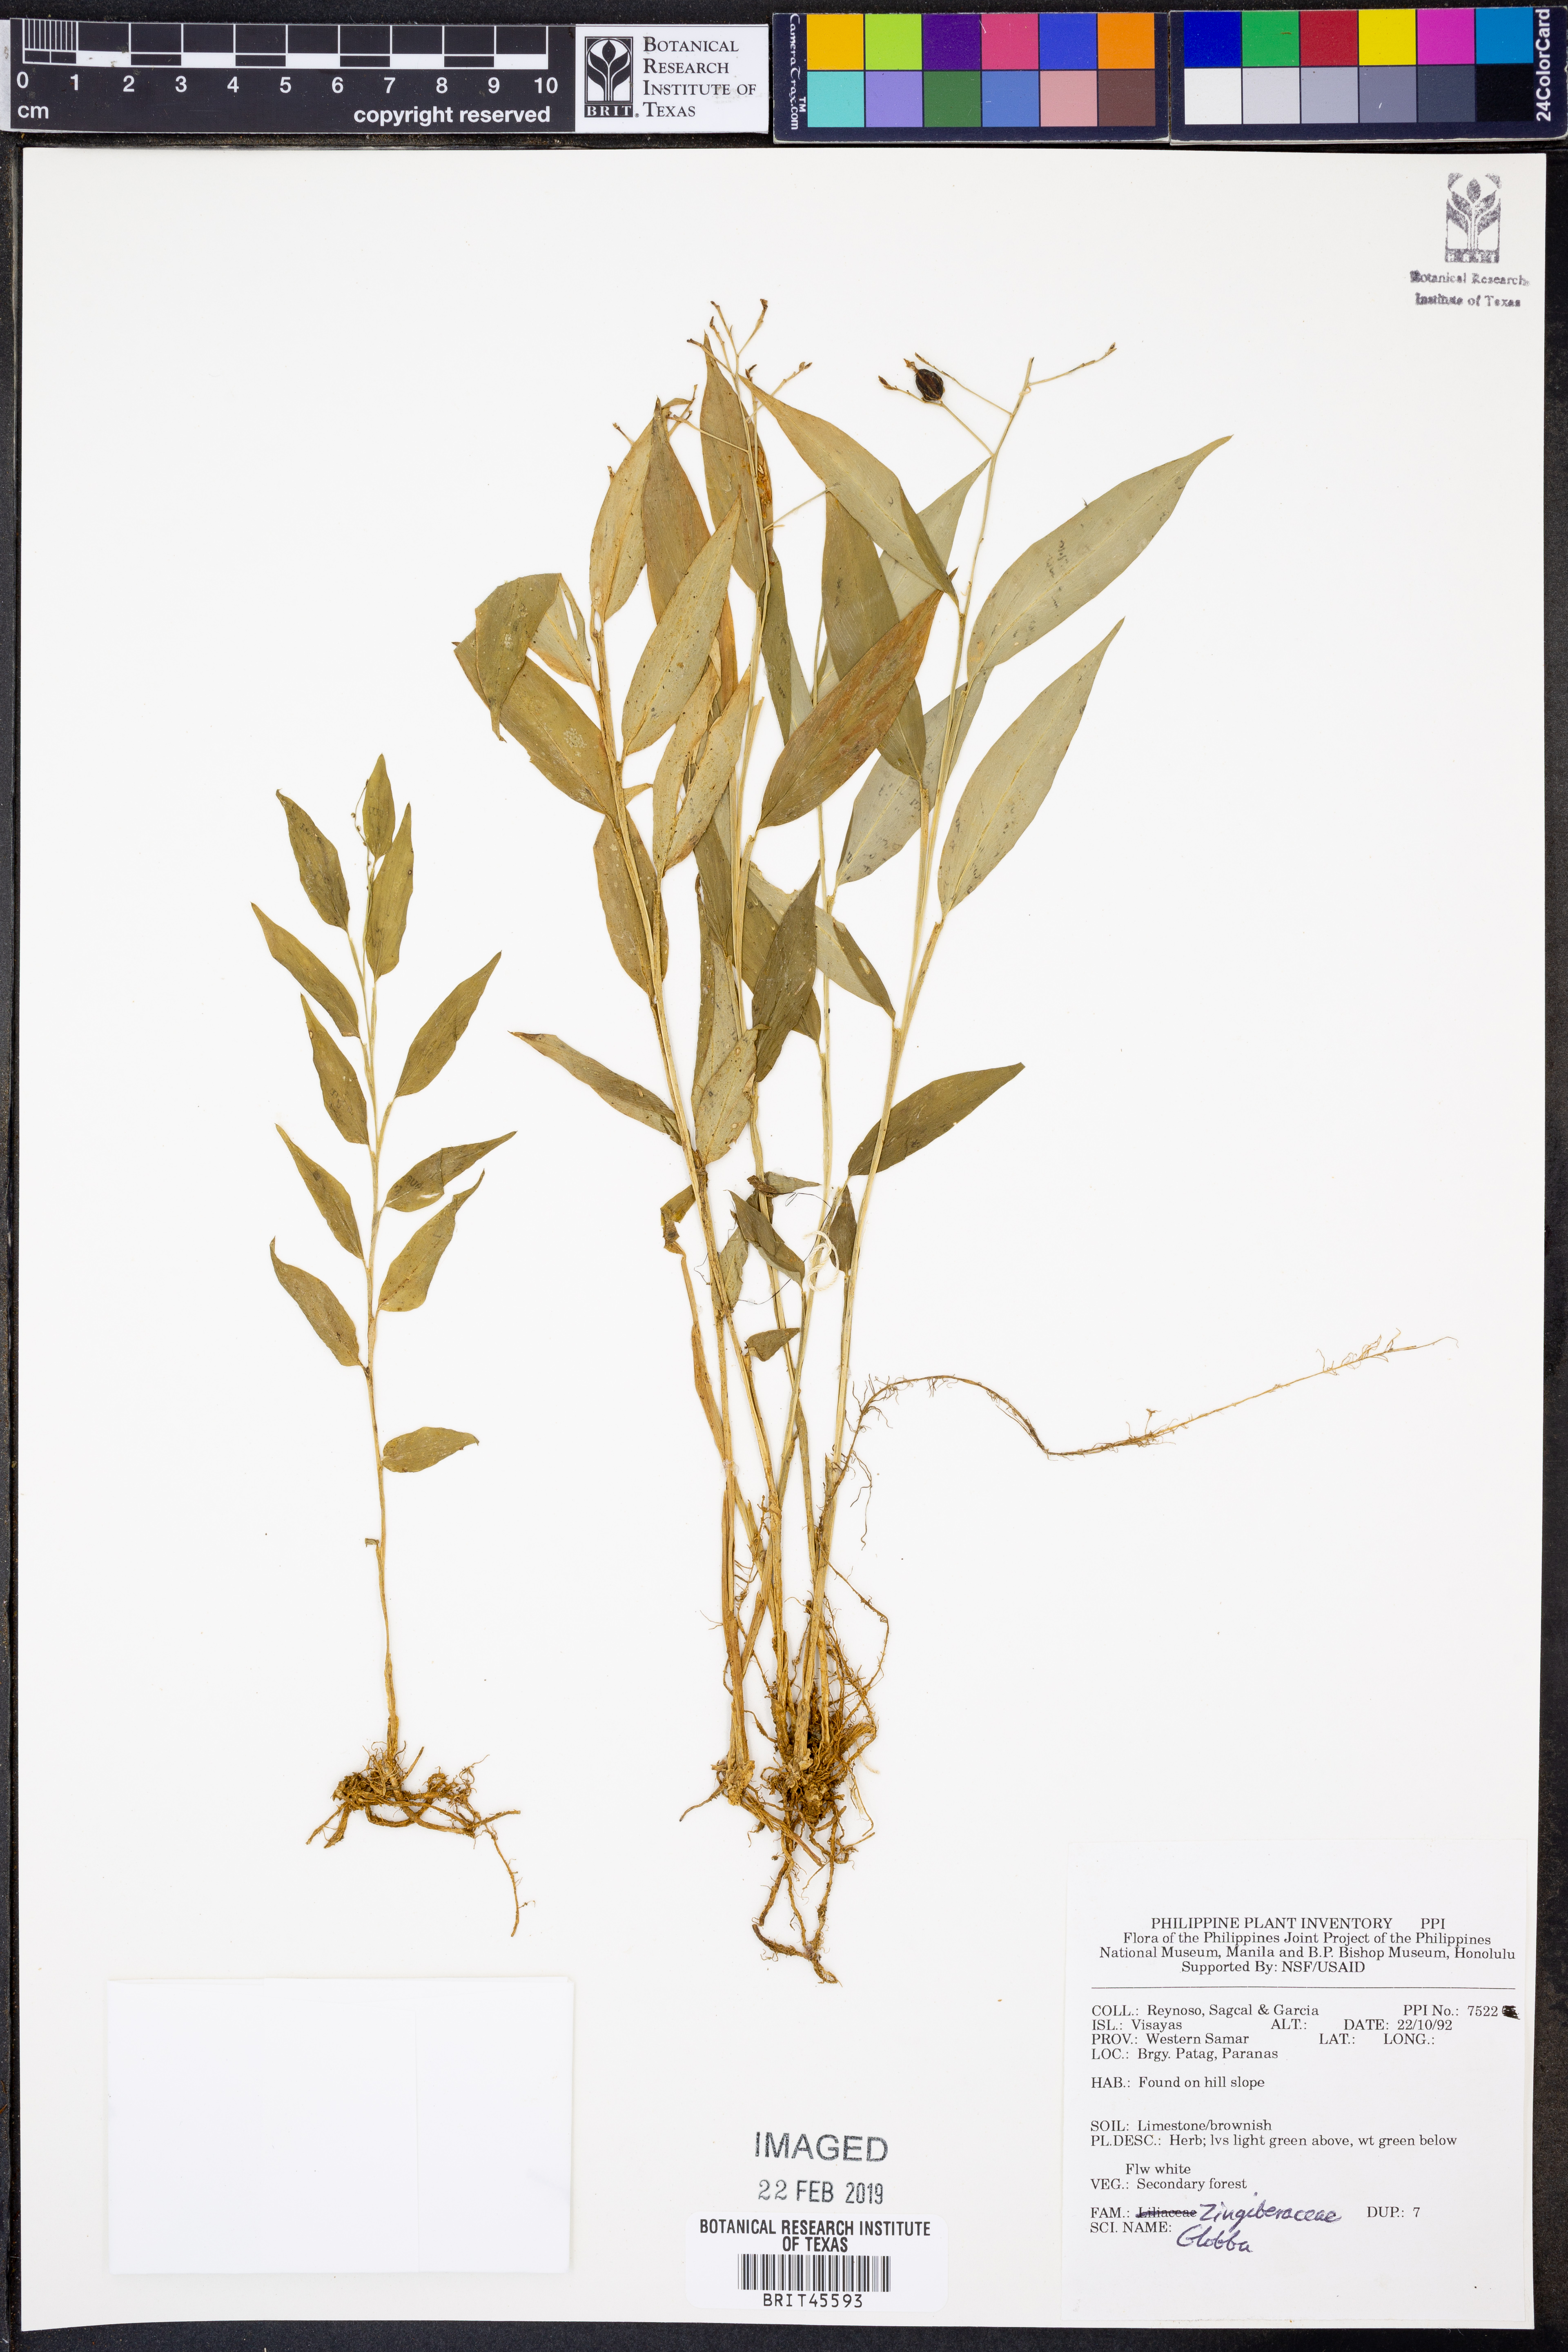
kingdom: Plantae
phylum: Tracheophyta
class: Liliopsida
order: Zingiberales
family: Zingiberaceae
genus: Globba
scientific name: Globba
